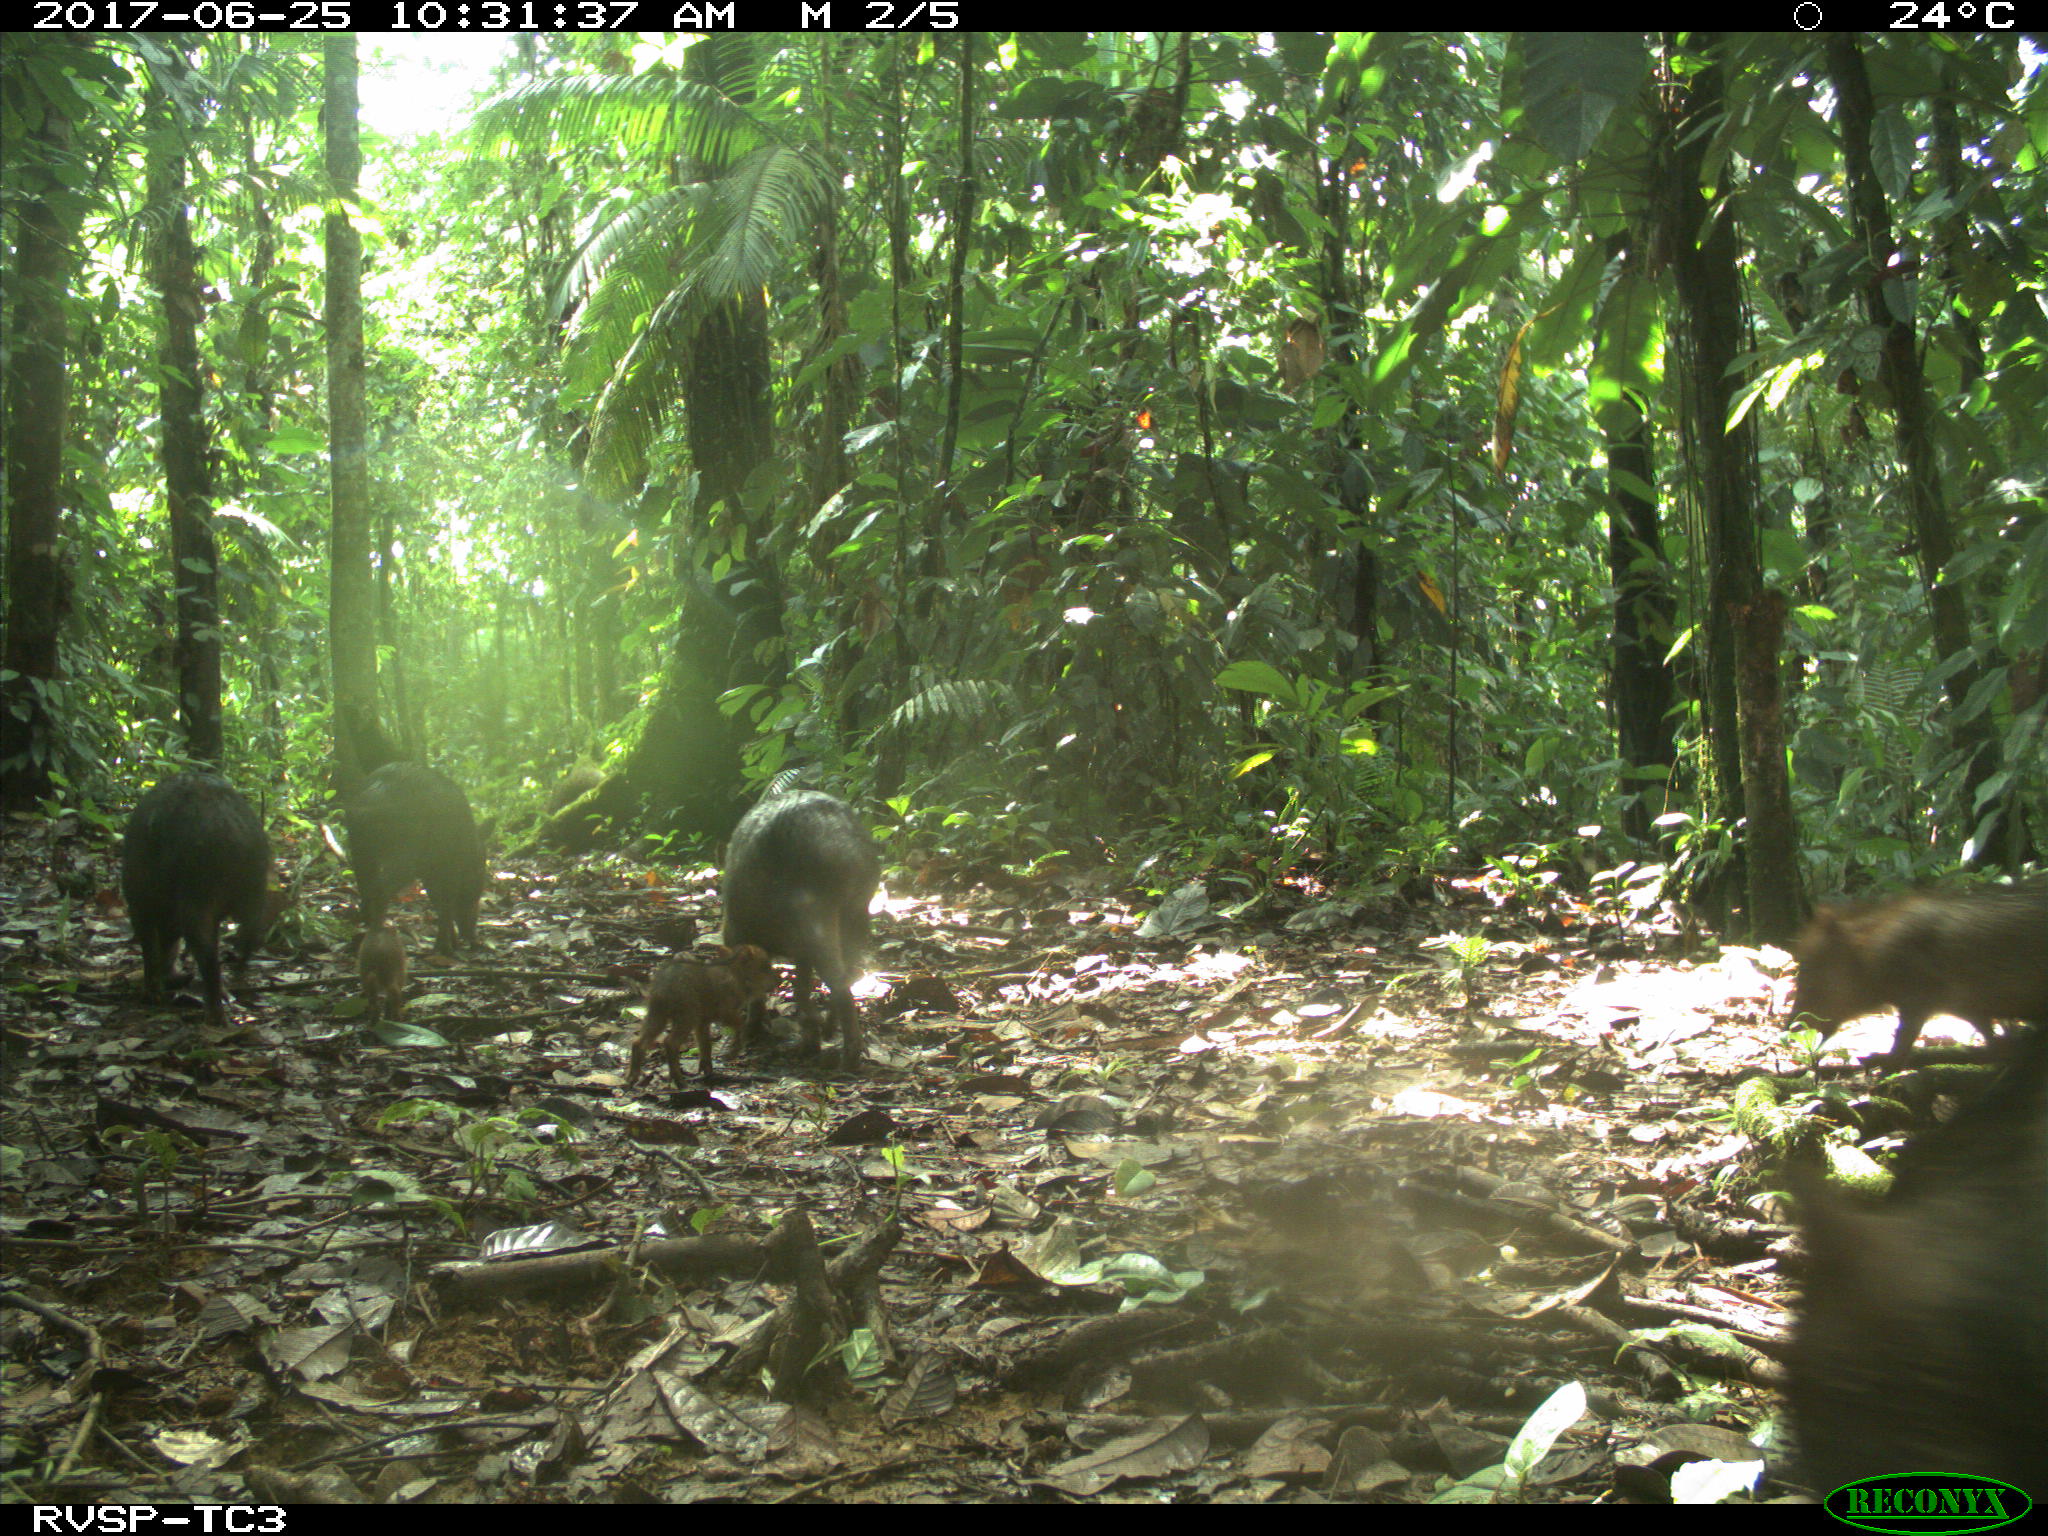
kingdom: Animalia
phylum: Chordata
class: Mammalia
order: Artiodactyla
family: Tayassuidae
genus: Tayassu
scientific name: Tayassu pecari
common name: White-lipped peccary
